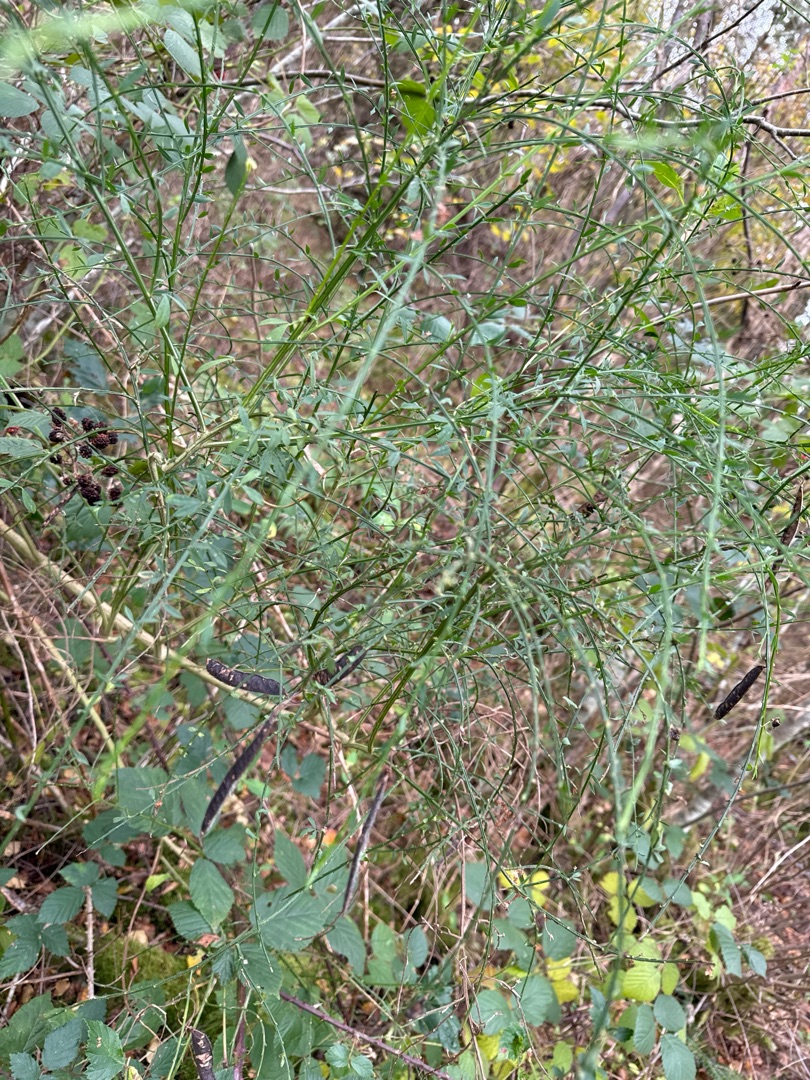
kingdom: Plantae
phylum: Tracheophyta
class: Magnoliopsida
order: Fabales
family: Fabaceae
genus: Cytisus
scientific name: Cytisus scoparius
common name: Almindelig gyvel
